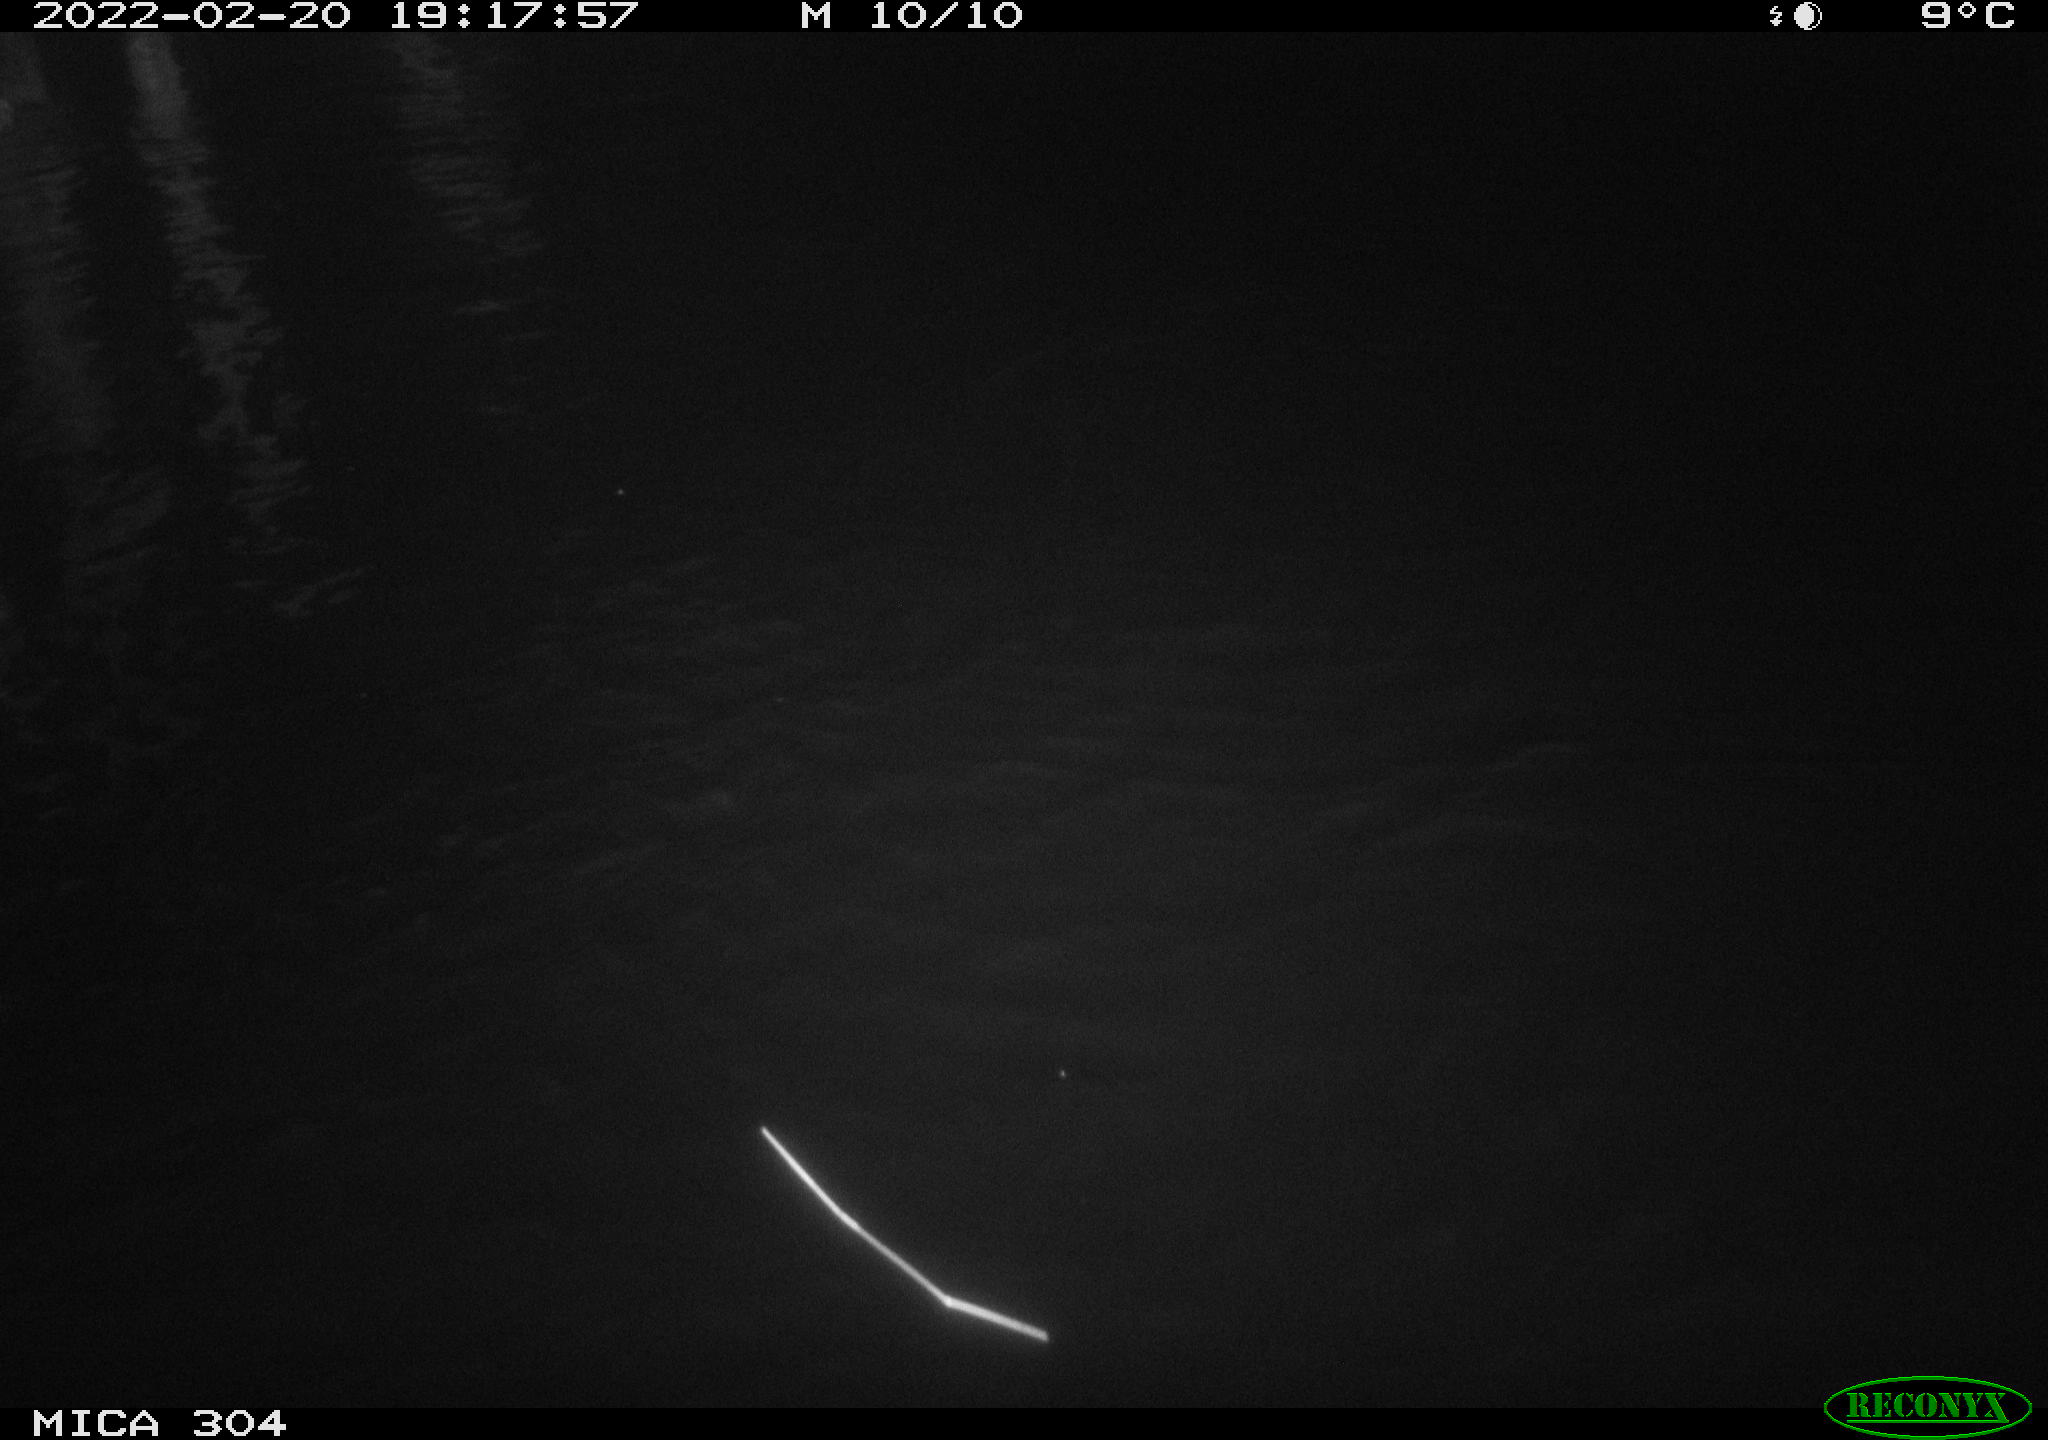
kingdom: Animalia
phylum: Chordata
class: Mammalia
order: Rodentia
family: Muridae
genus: Rattus
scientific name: Rattus norvegicus
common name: Brown rat
